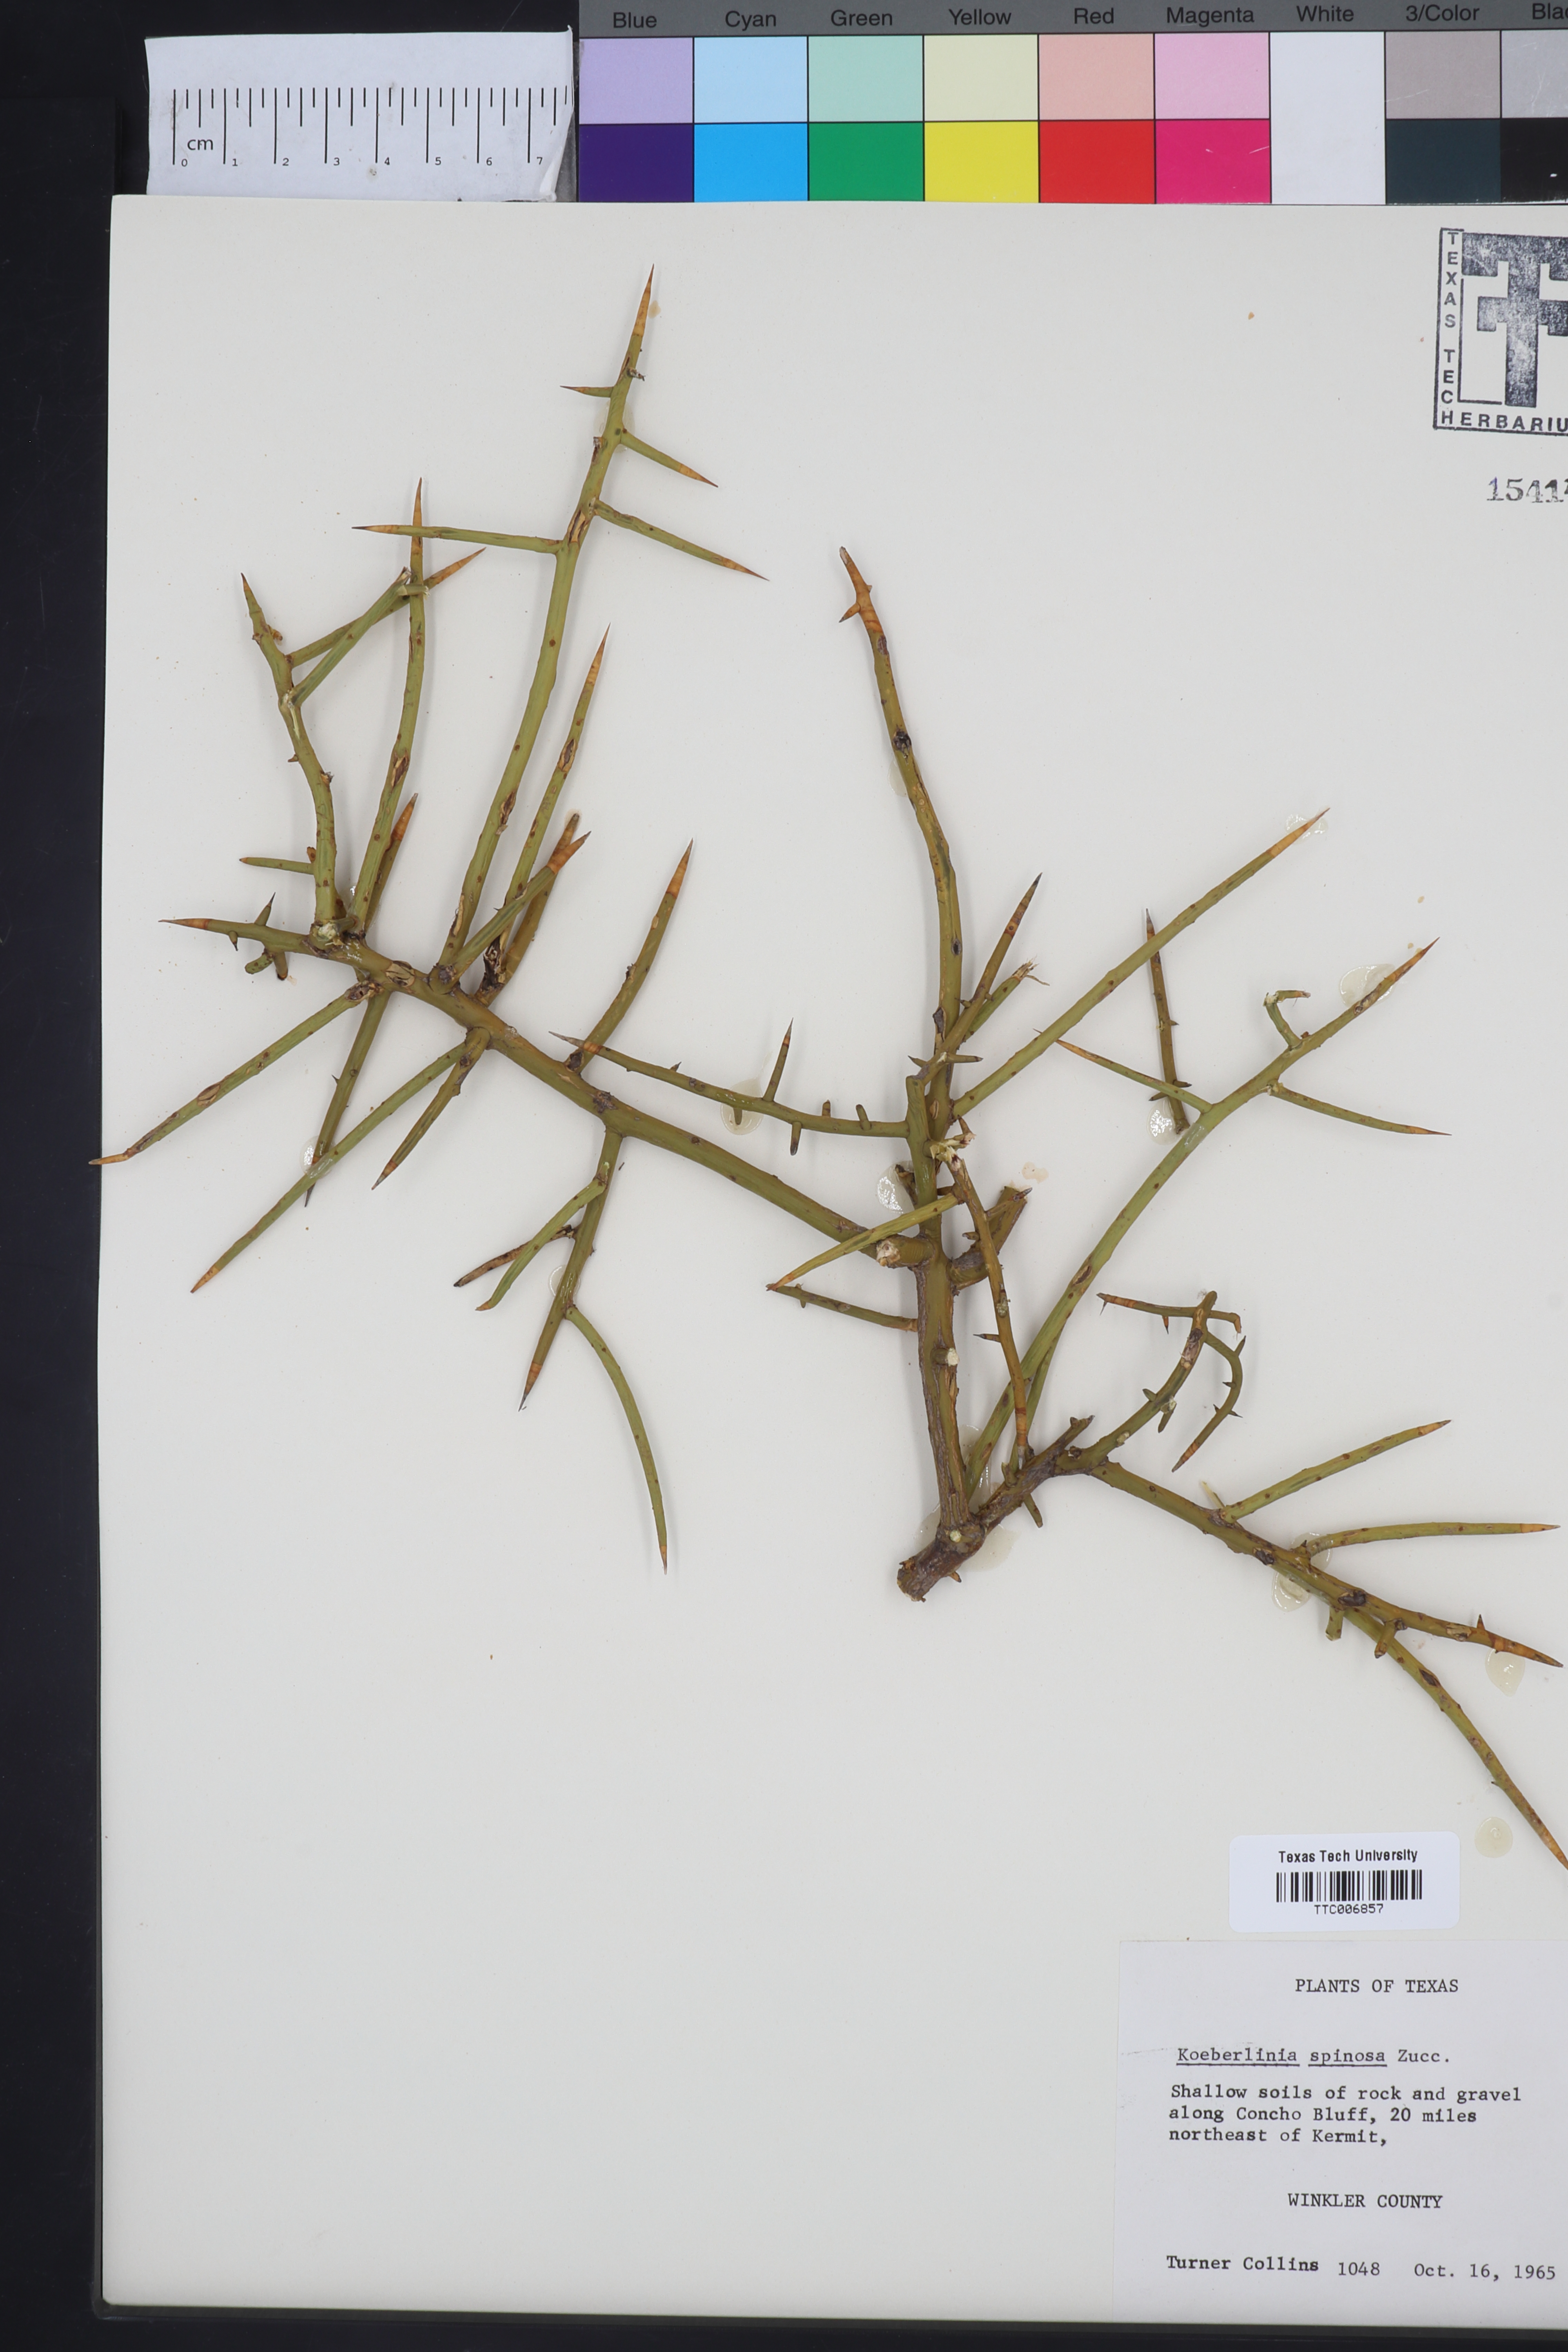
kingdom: Plantae
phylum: Tracheophyta
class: Magnoliopsida
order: Brassicales
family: Koeberliniaceae
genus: Koeberlinia
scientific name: Koeberlinia spinosa
